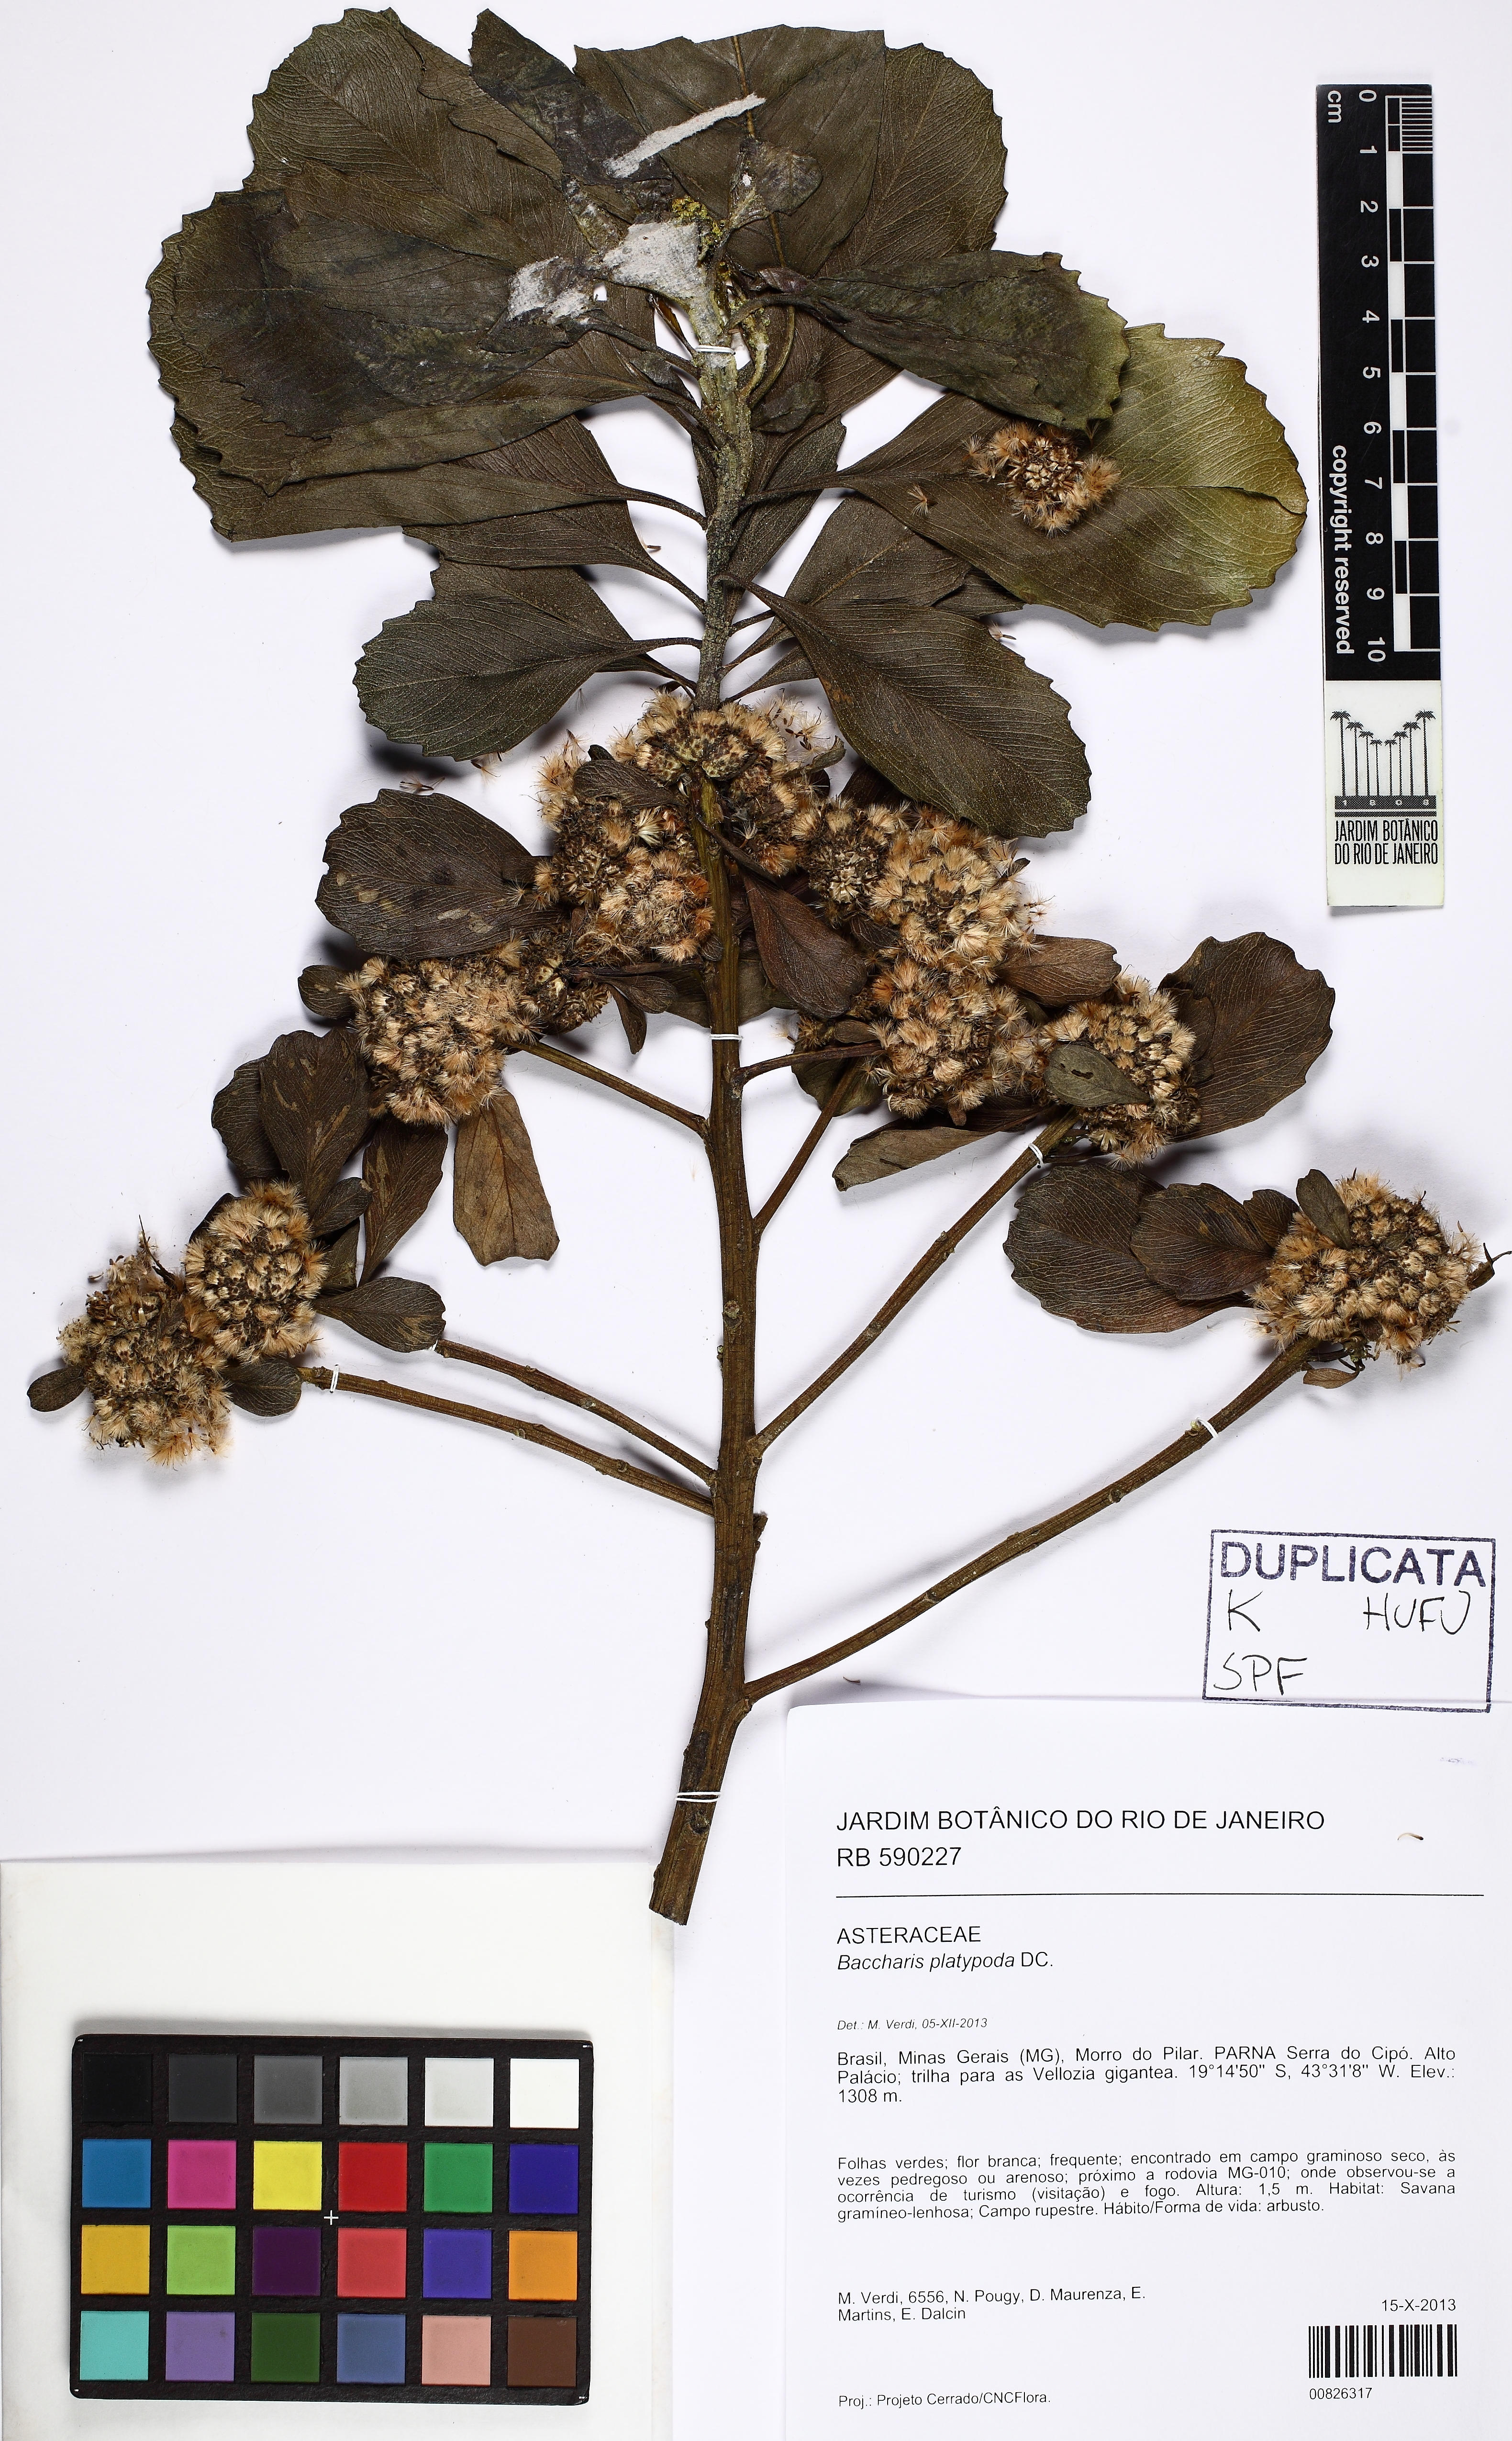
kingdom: Plantae
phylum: Tracheophyta
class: Magnoliopsida
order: Asterales
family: Asteraceae
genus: Baccharis
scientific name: Baccharis platypoda
